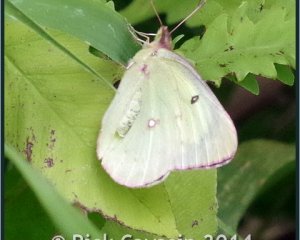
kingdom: Animalia
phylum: Arthropoda
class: Insecta
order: Lepidoptera
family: Pieridae
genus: Colias
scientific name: Colias philodice
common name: Clouded Sulphur
